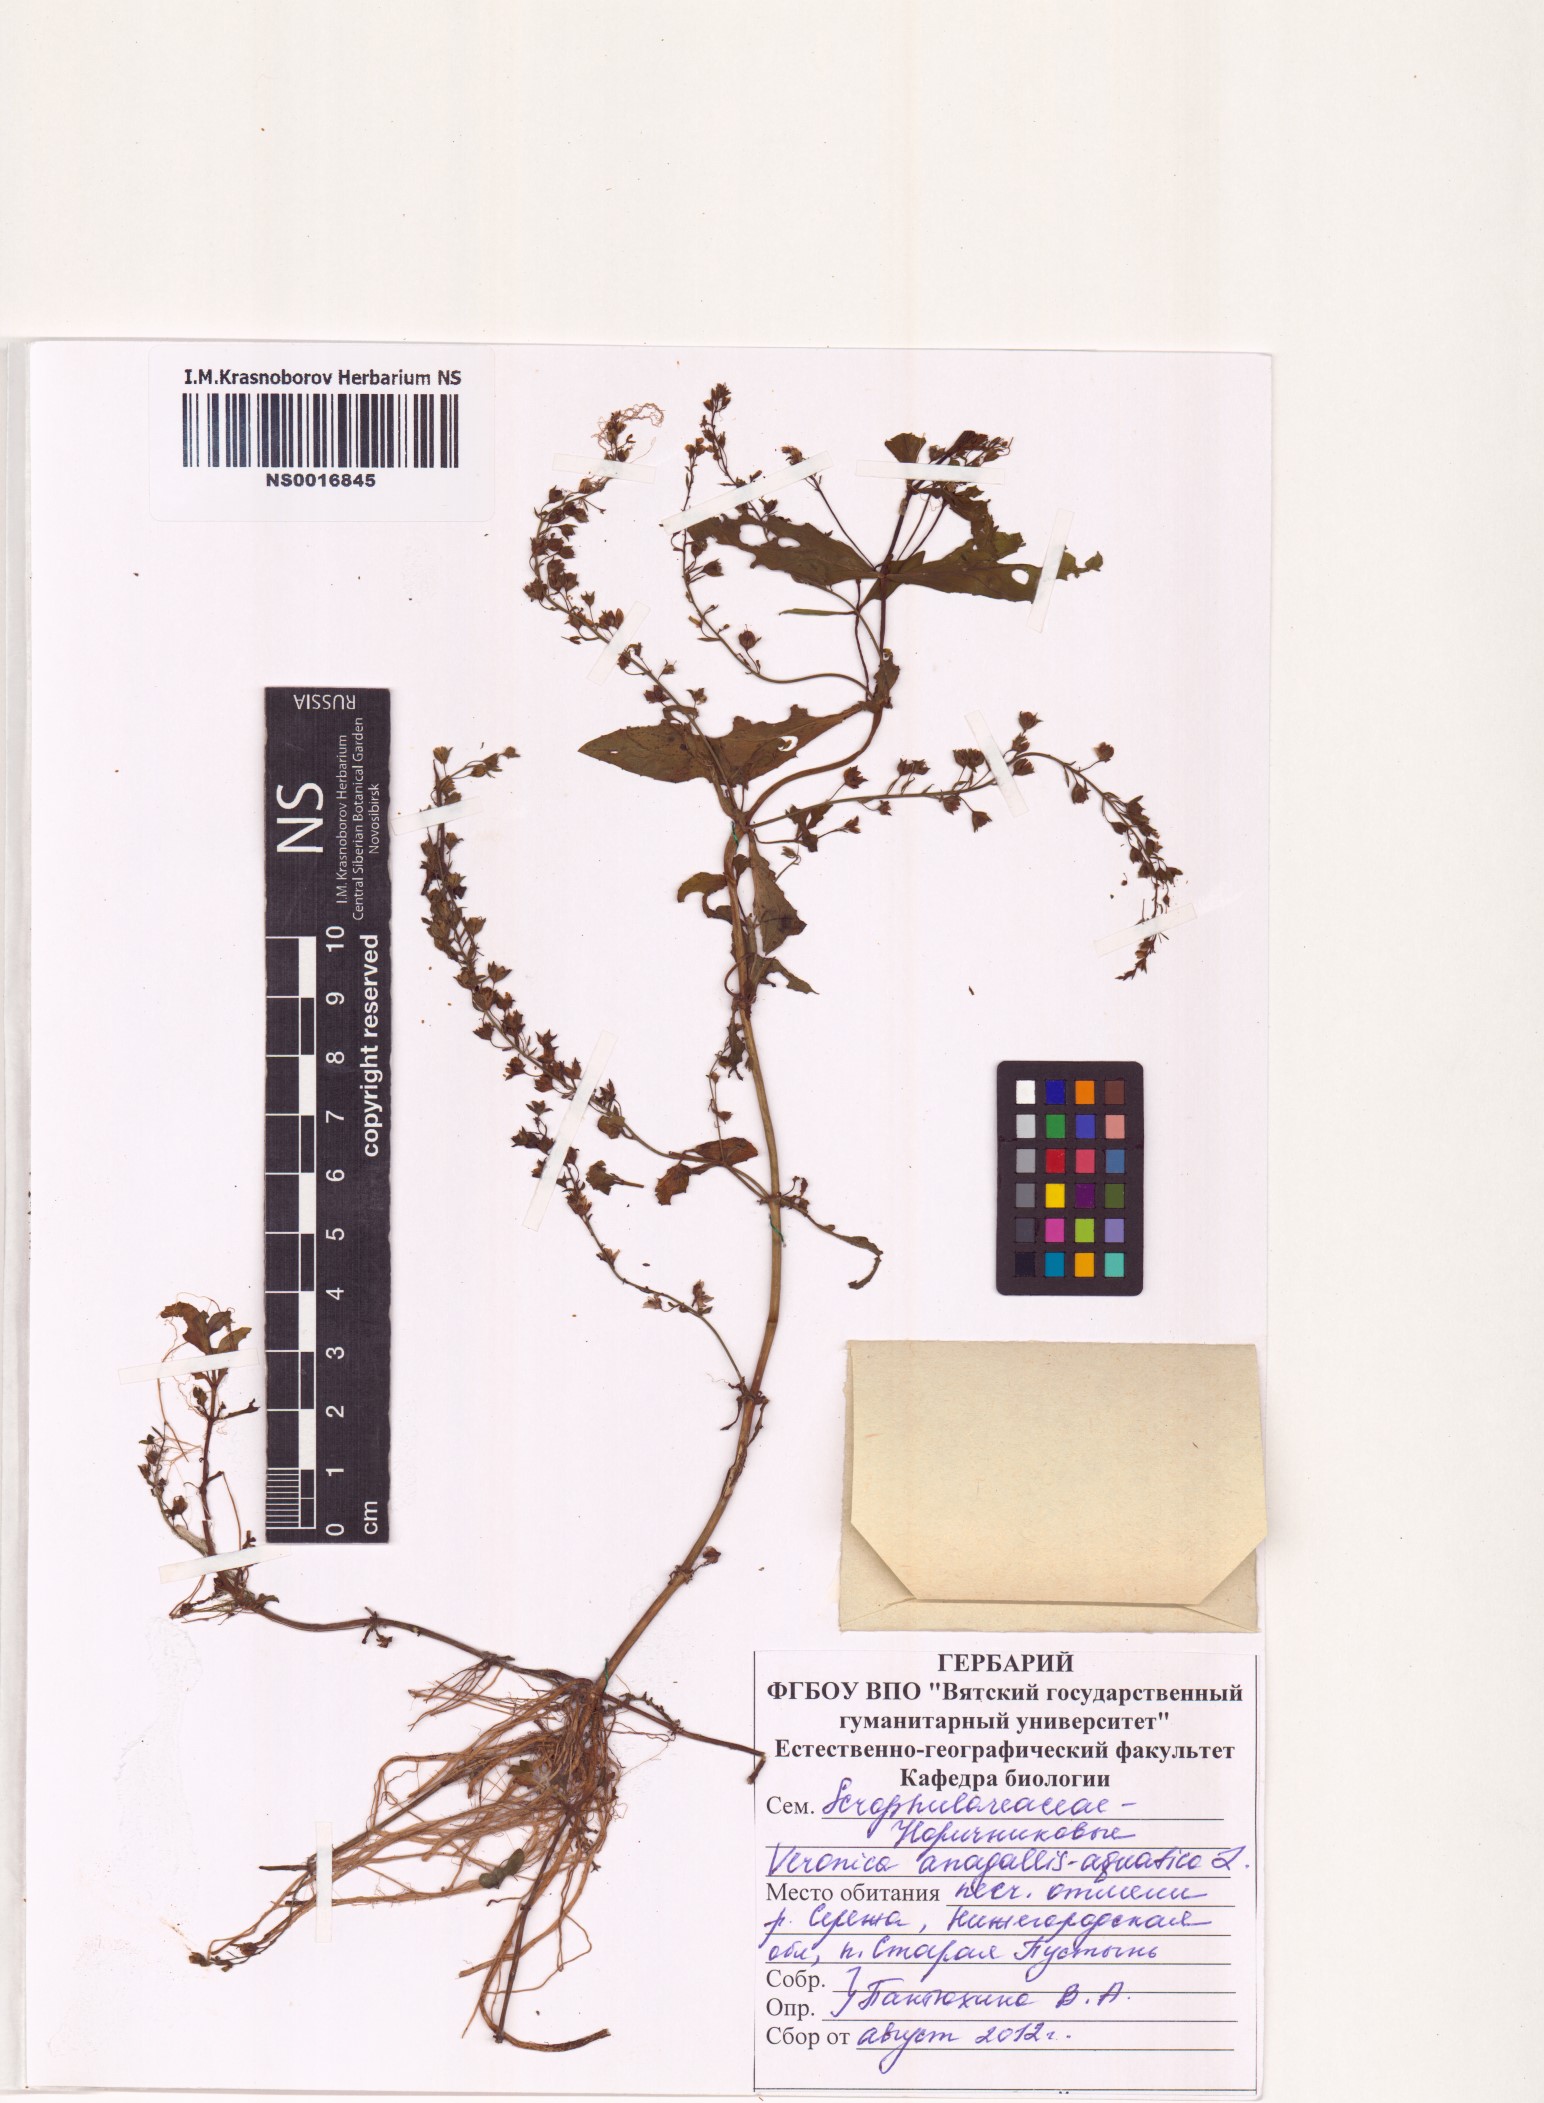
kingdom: Plantae
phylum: Tracheophyta
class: Magnoliopsida
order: Lamiales
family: Plantaginaceae
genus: Veronica
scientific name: Veronica anagallis-aquatica
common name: Water speedwell
